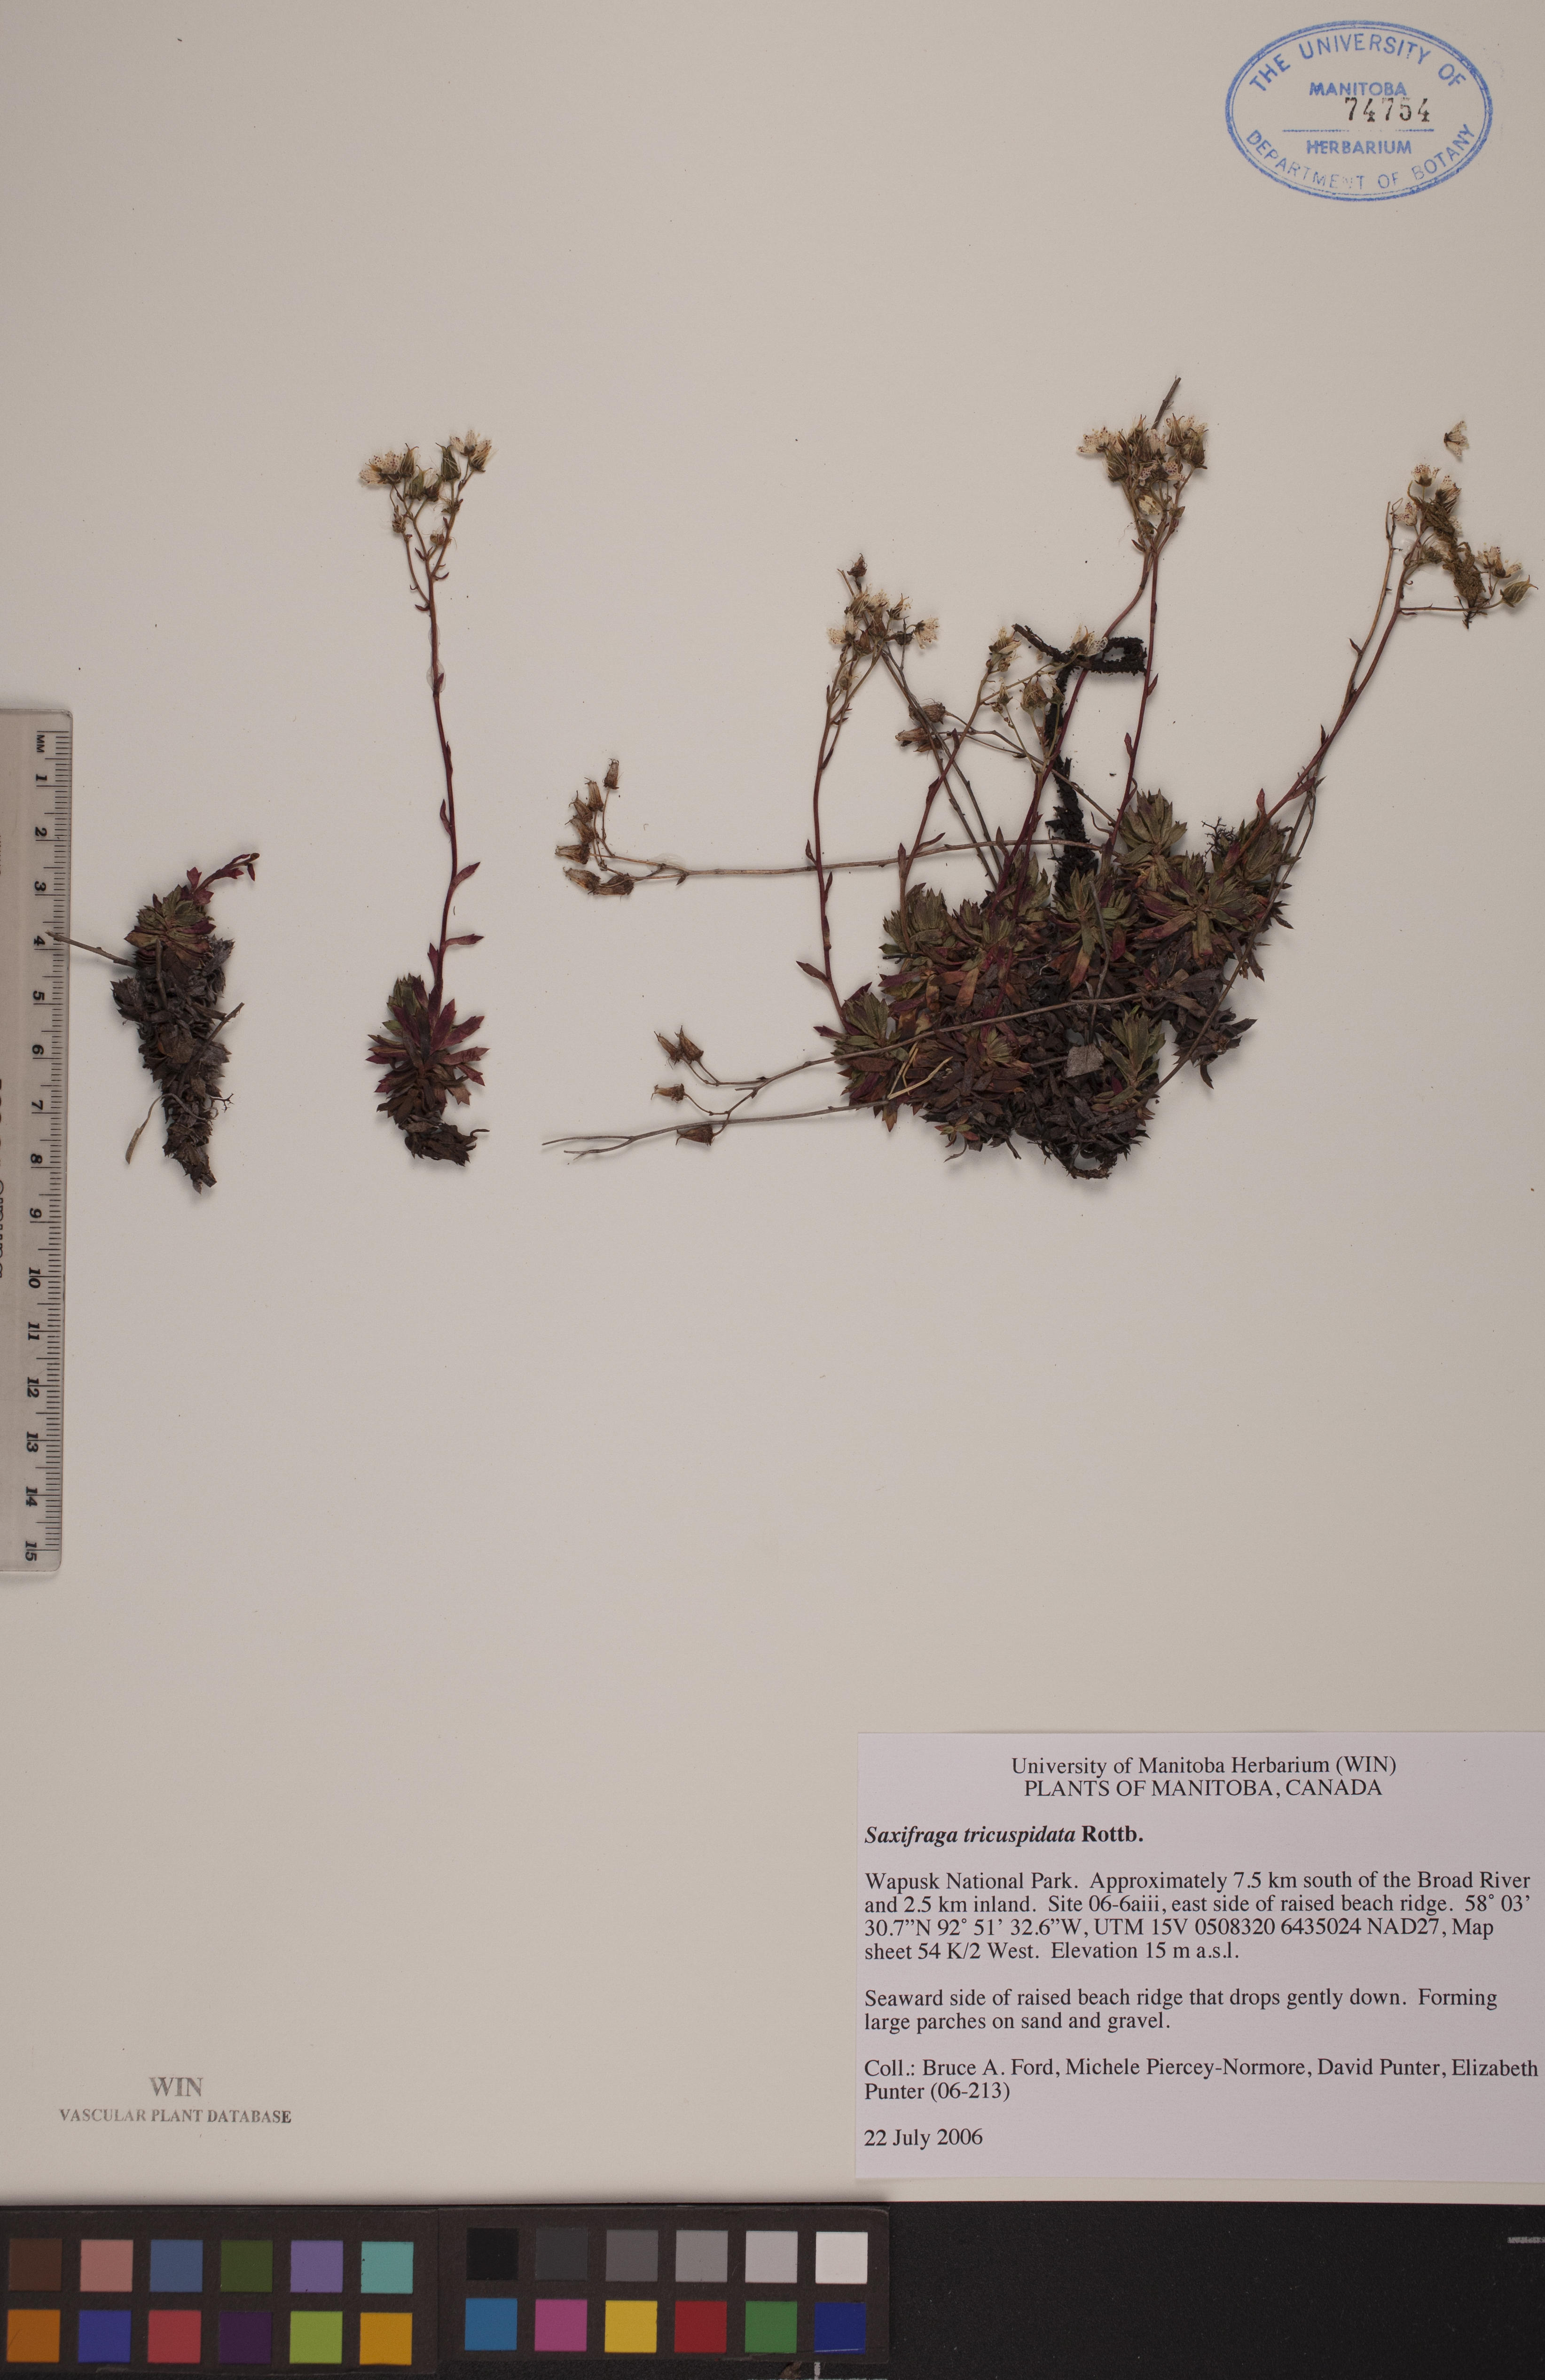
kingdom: Plantae
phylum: Tracheophyta
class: Magnoliopsida
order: Saxifragales
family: Saxifragaceae
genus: Saxifraga
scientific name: Saxifraga tricuspidata
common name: Prickly saxifrage
